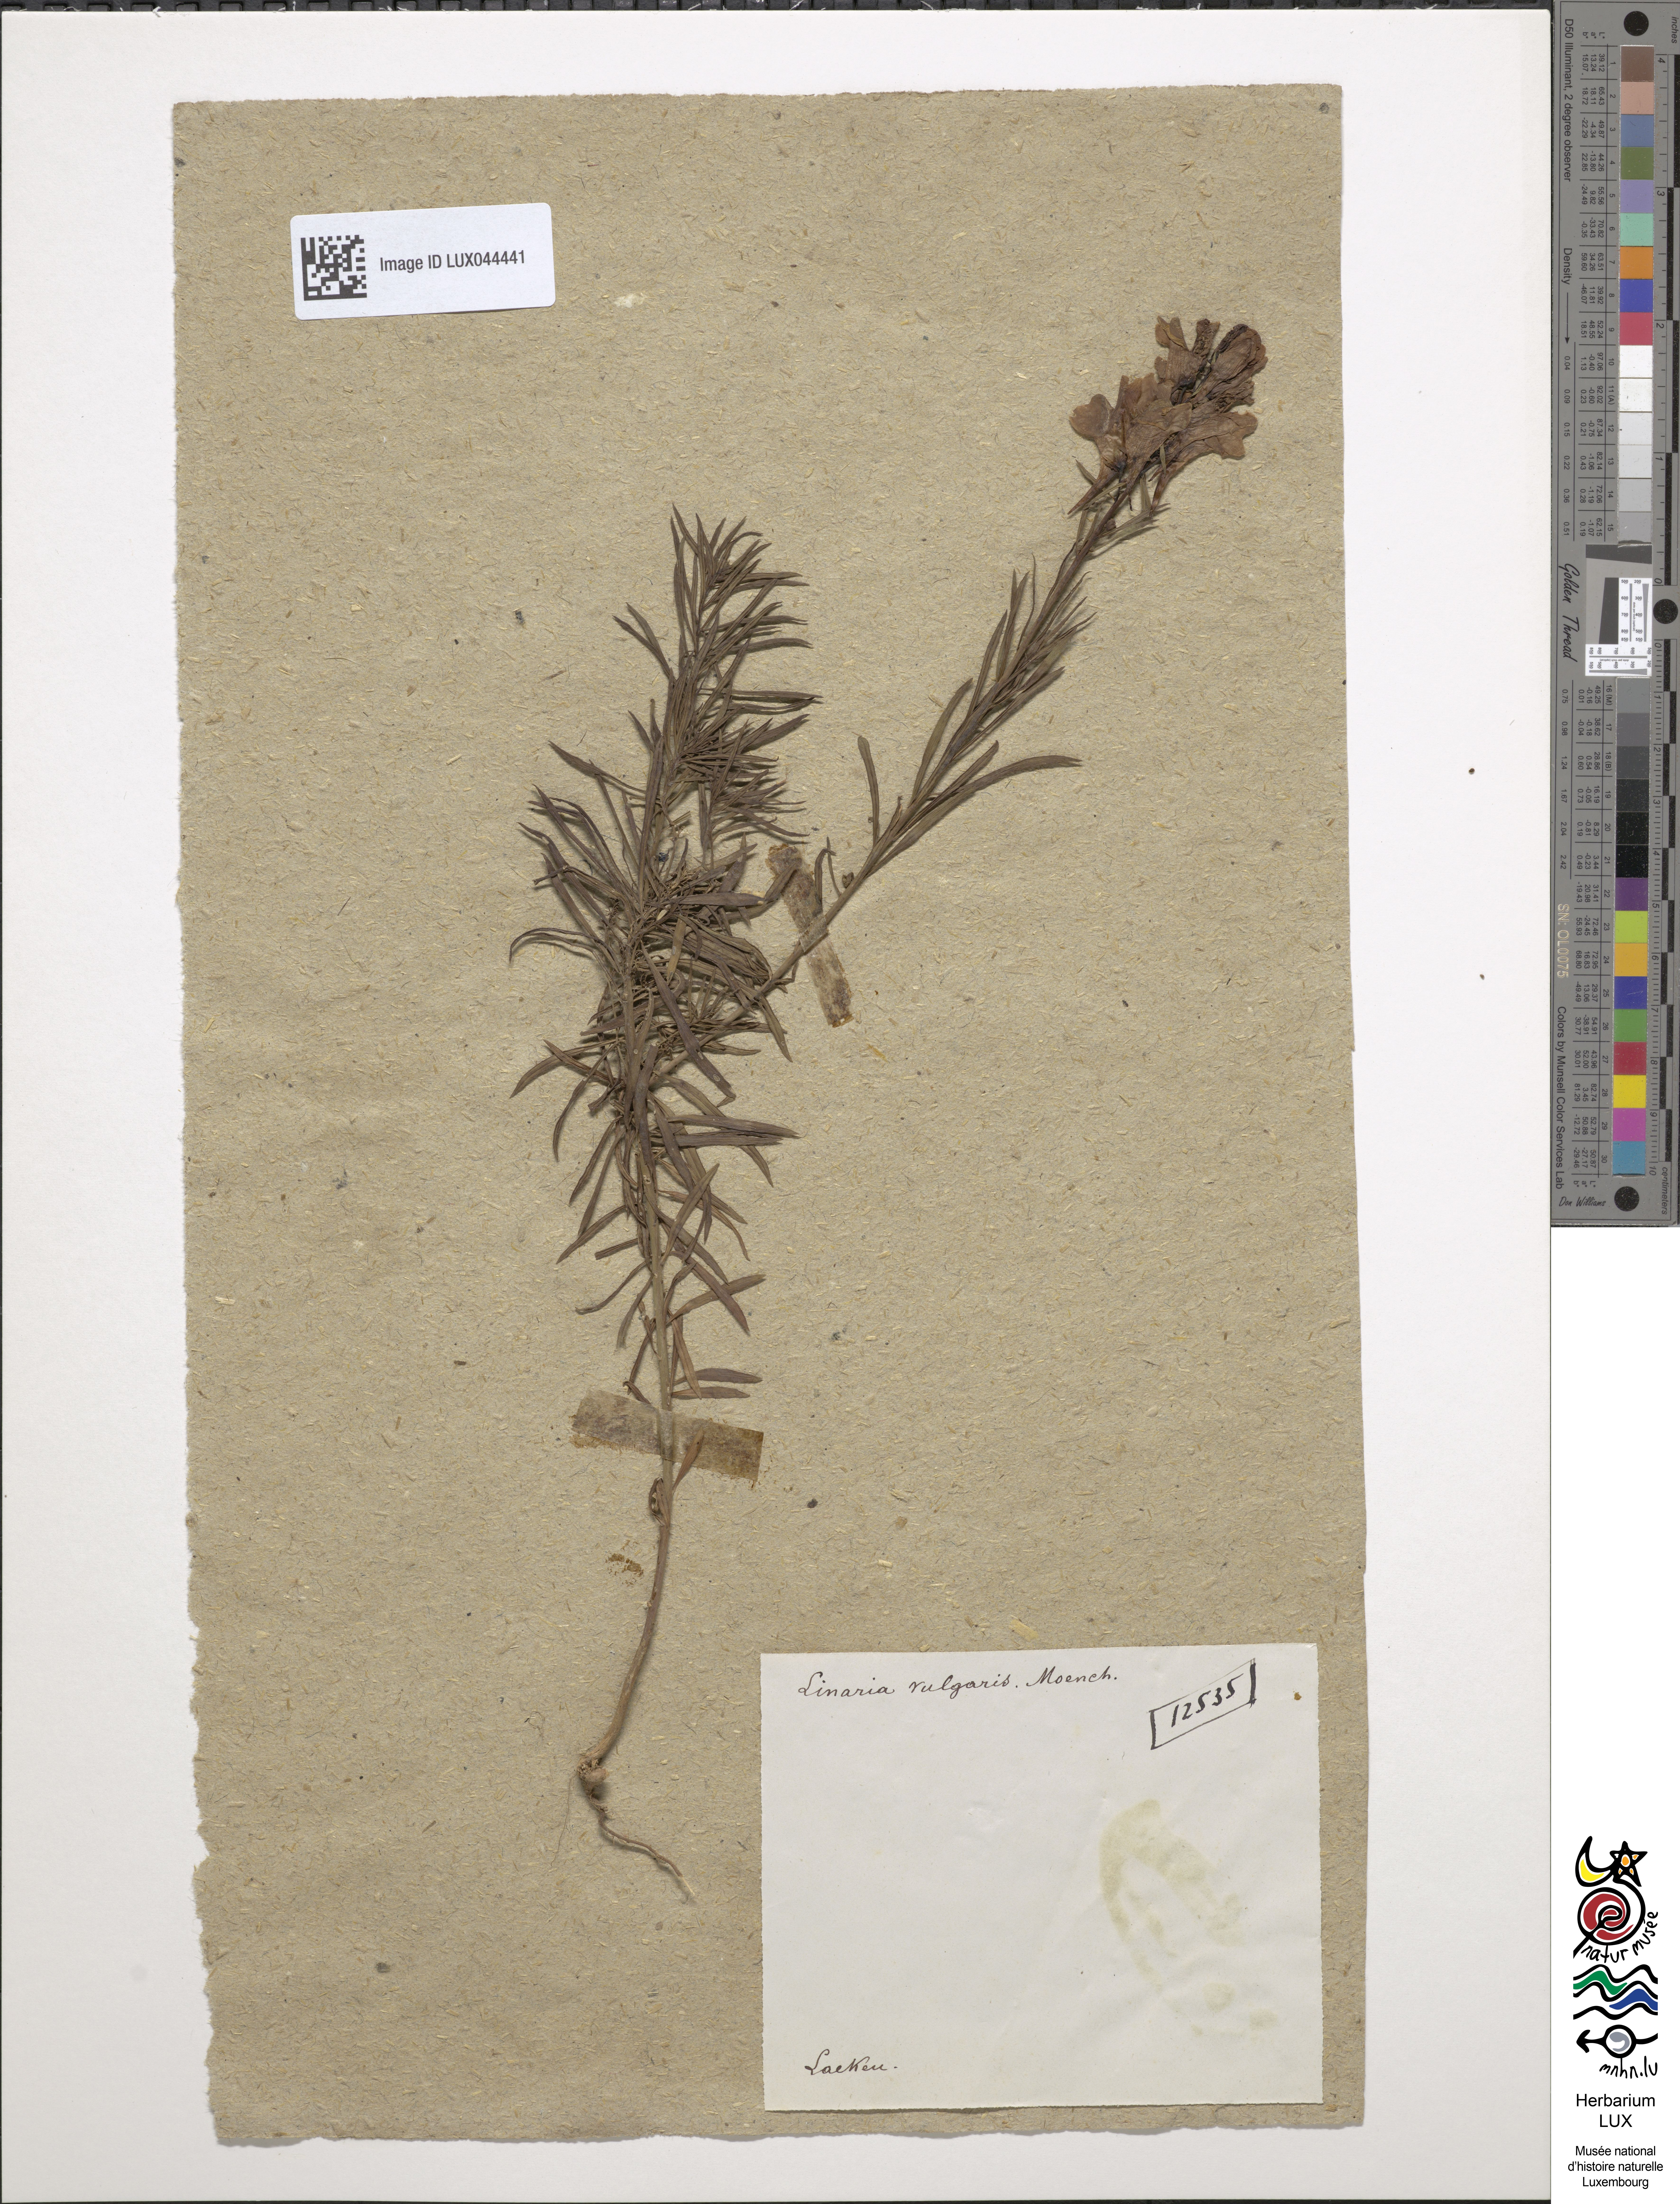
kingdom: Plantae
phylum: Tracheophyta
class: Magnoliopsida
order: Lamiales
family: Plantaginaceae
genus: Linaria
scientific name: Linaria vulgaris
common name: Butter and eggs
